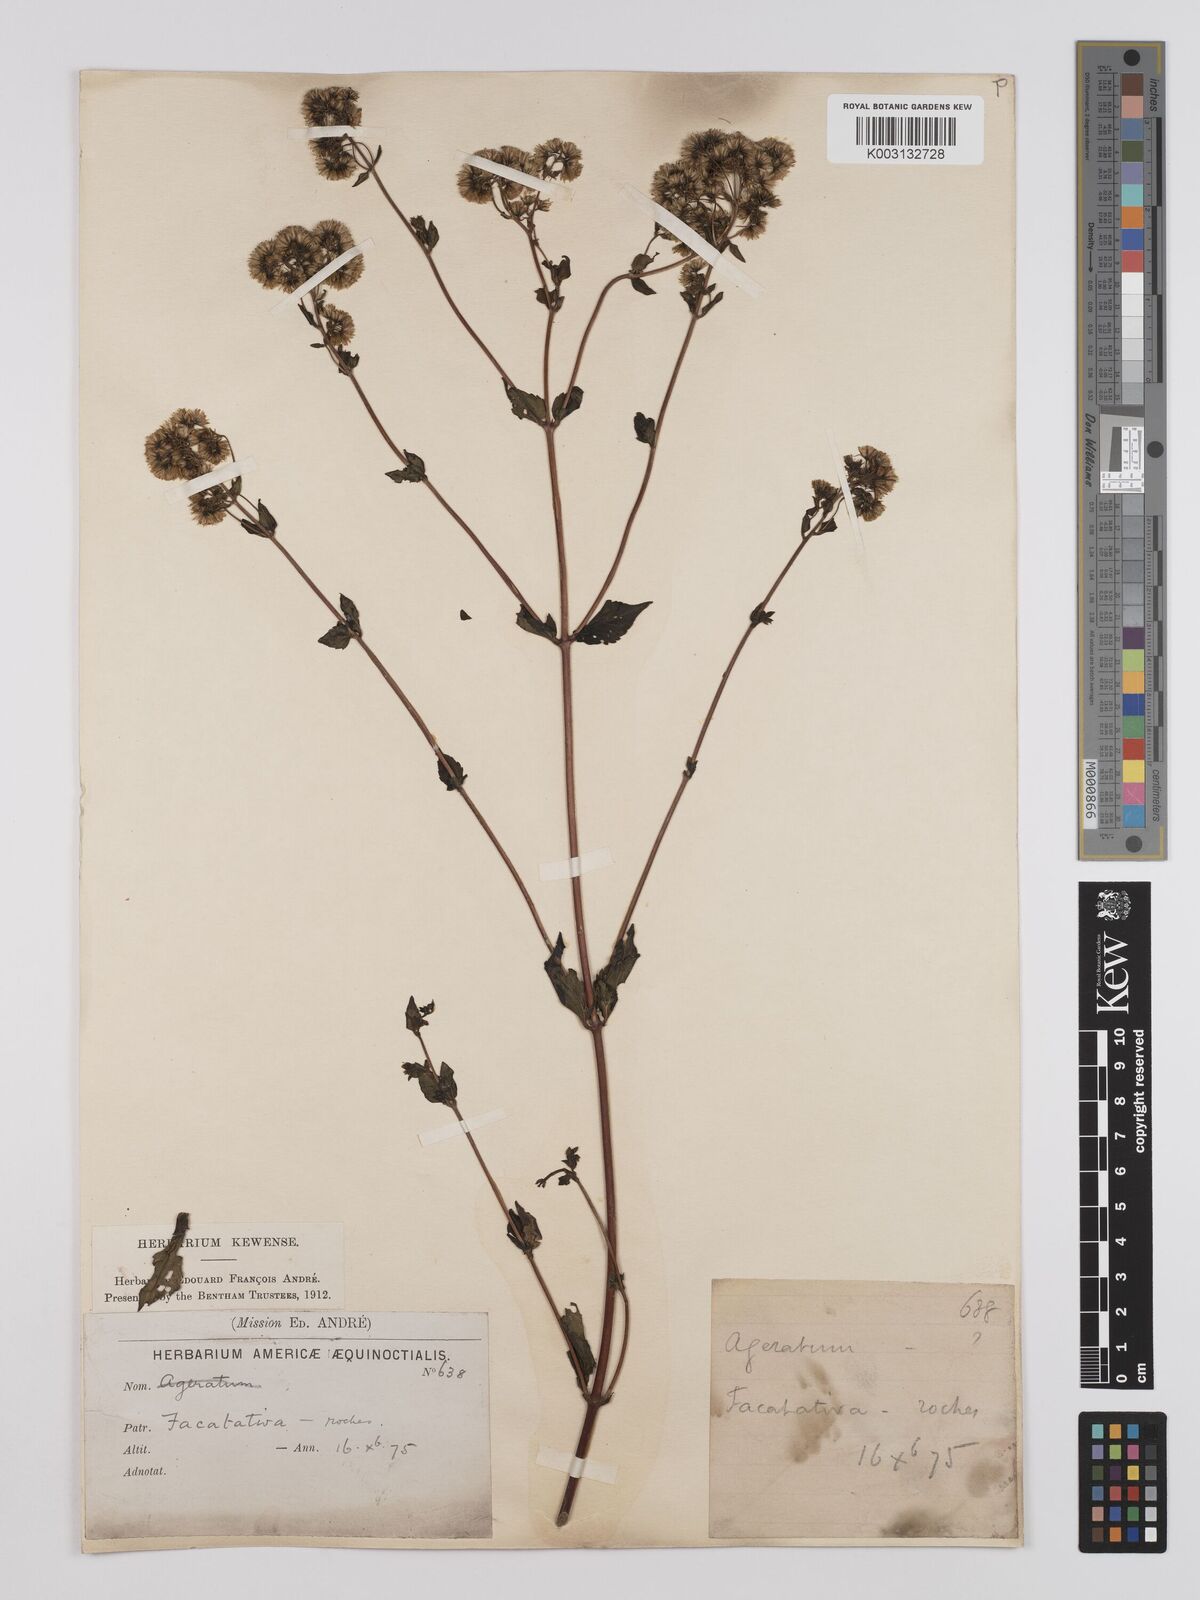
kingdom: Plantae
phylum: Tracheophyta
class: Magnoliopsida
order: Asterales
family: Asteraceae
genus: Ageratina
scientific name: Ageratina gracilis
